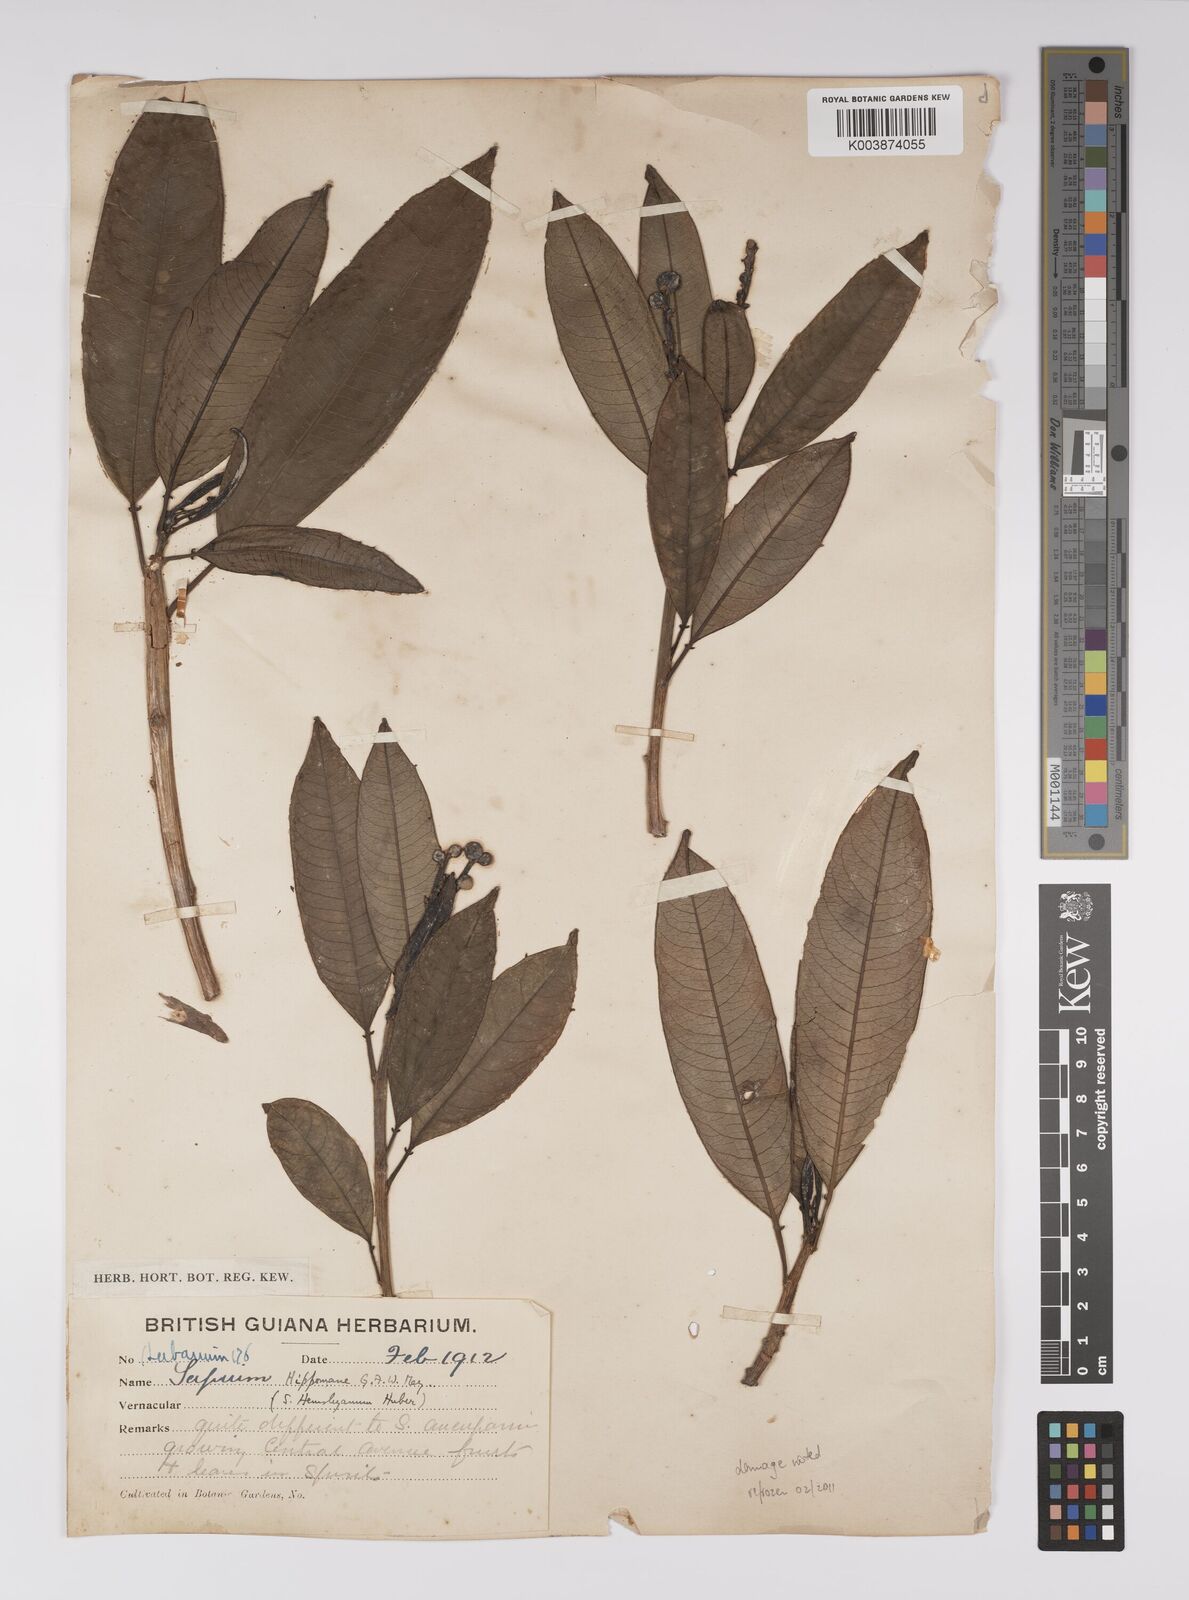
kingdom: Plantae
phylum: Tracheophyta
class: Magnoliopsida
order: Malpighiales
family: Euphorbiaceae
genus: Sapium
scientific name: Sapium glandulosum
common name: Milktree
